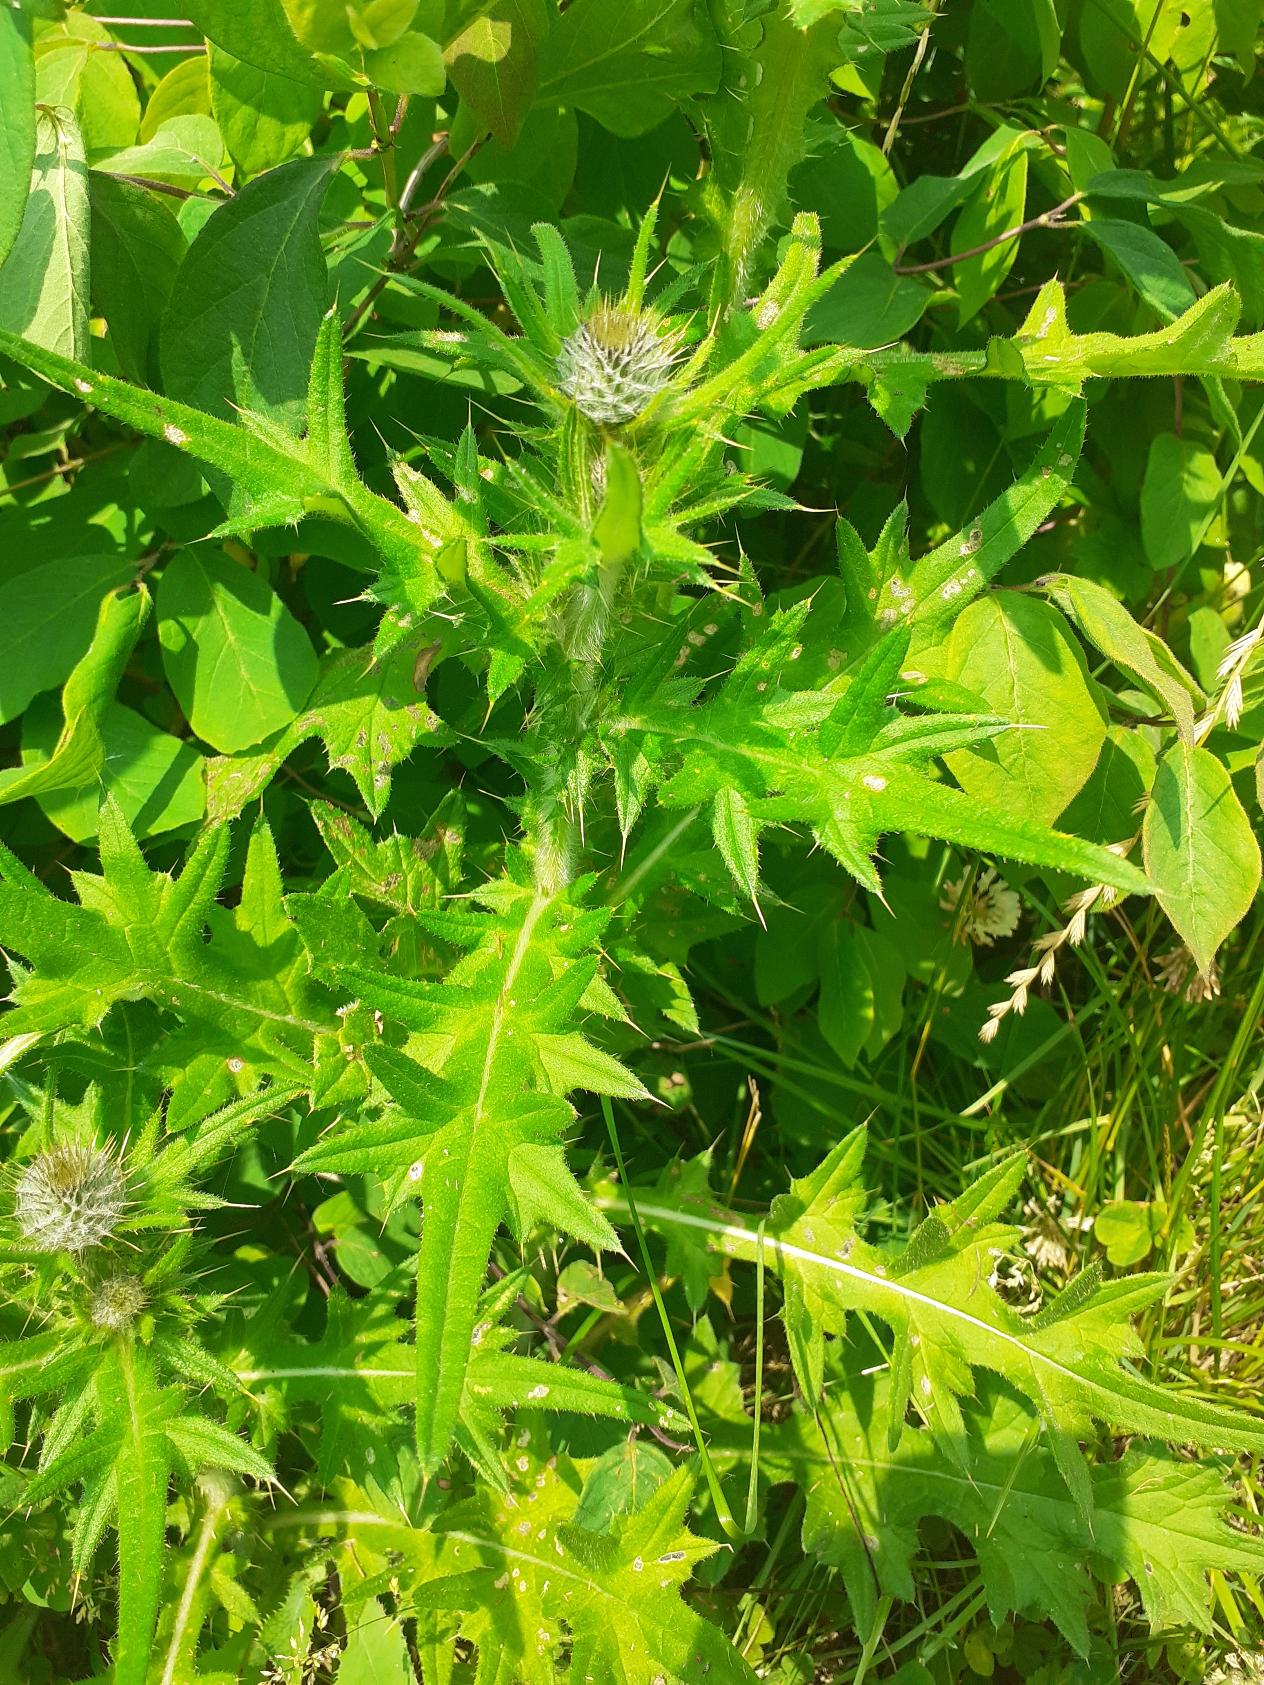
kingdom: Plantae
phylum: Tracheophyta
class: Magnoliopsida
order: Asterales
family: Asteraceae
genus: Cirsium
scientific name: Cirsium vulgare
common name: Horse-tidsel
